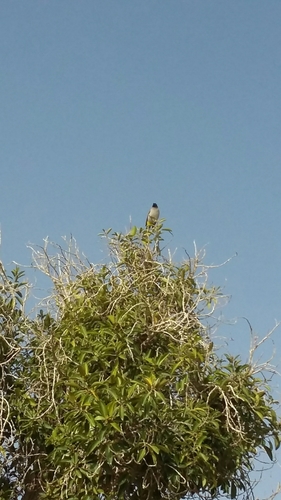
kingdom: Animalia
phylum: Chordata
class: Aves
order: Passeriformes
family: Pycnonotidae
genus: Pycnonotus
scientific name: Pycnonotus xanthopygos
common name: White-spectacled bulbul
